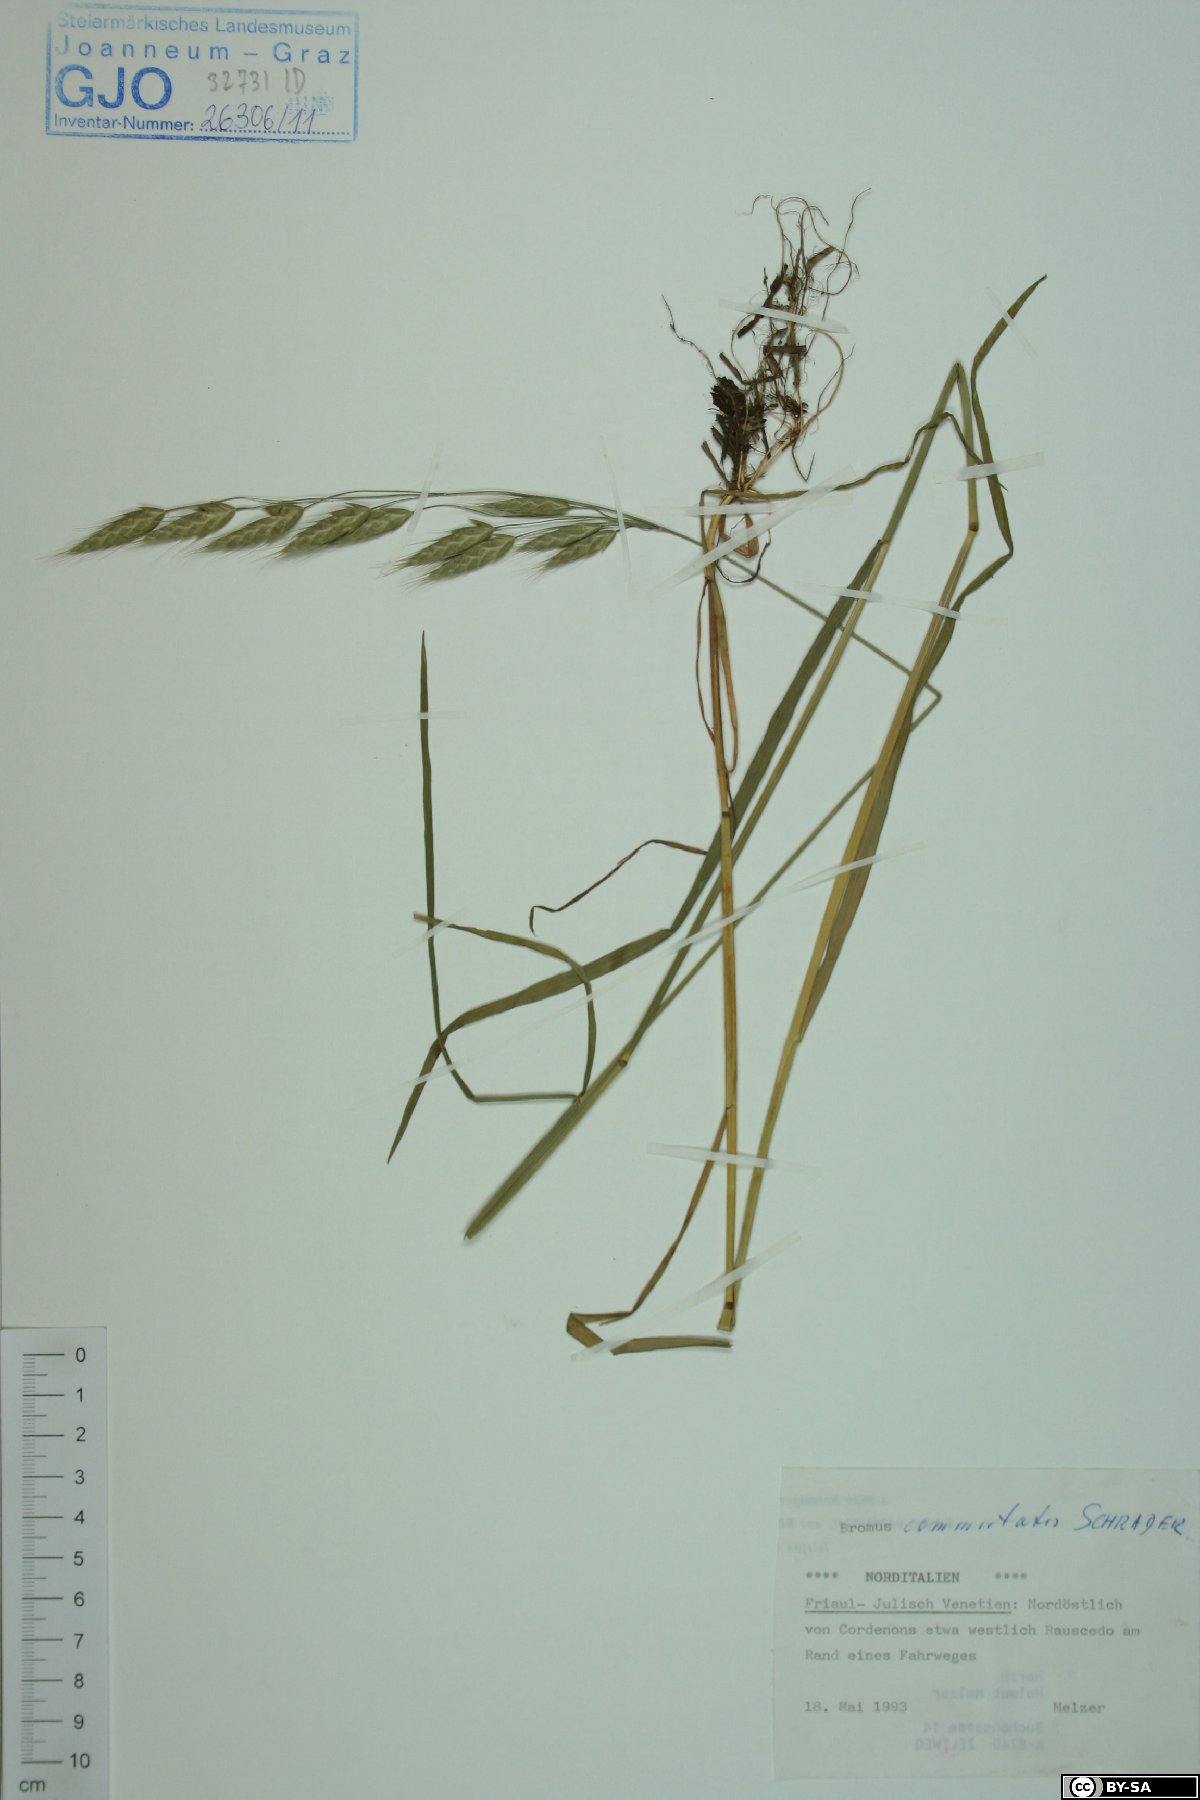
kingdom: Plantae
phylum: Tracheophyta
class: Liliopsida
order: Poales
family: Poaceae
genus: Bromus
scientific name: Bromus commutatus
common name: Meadow brome
